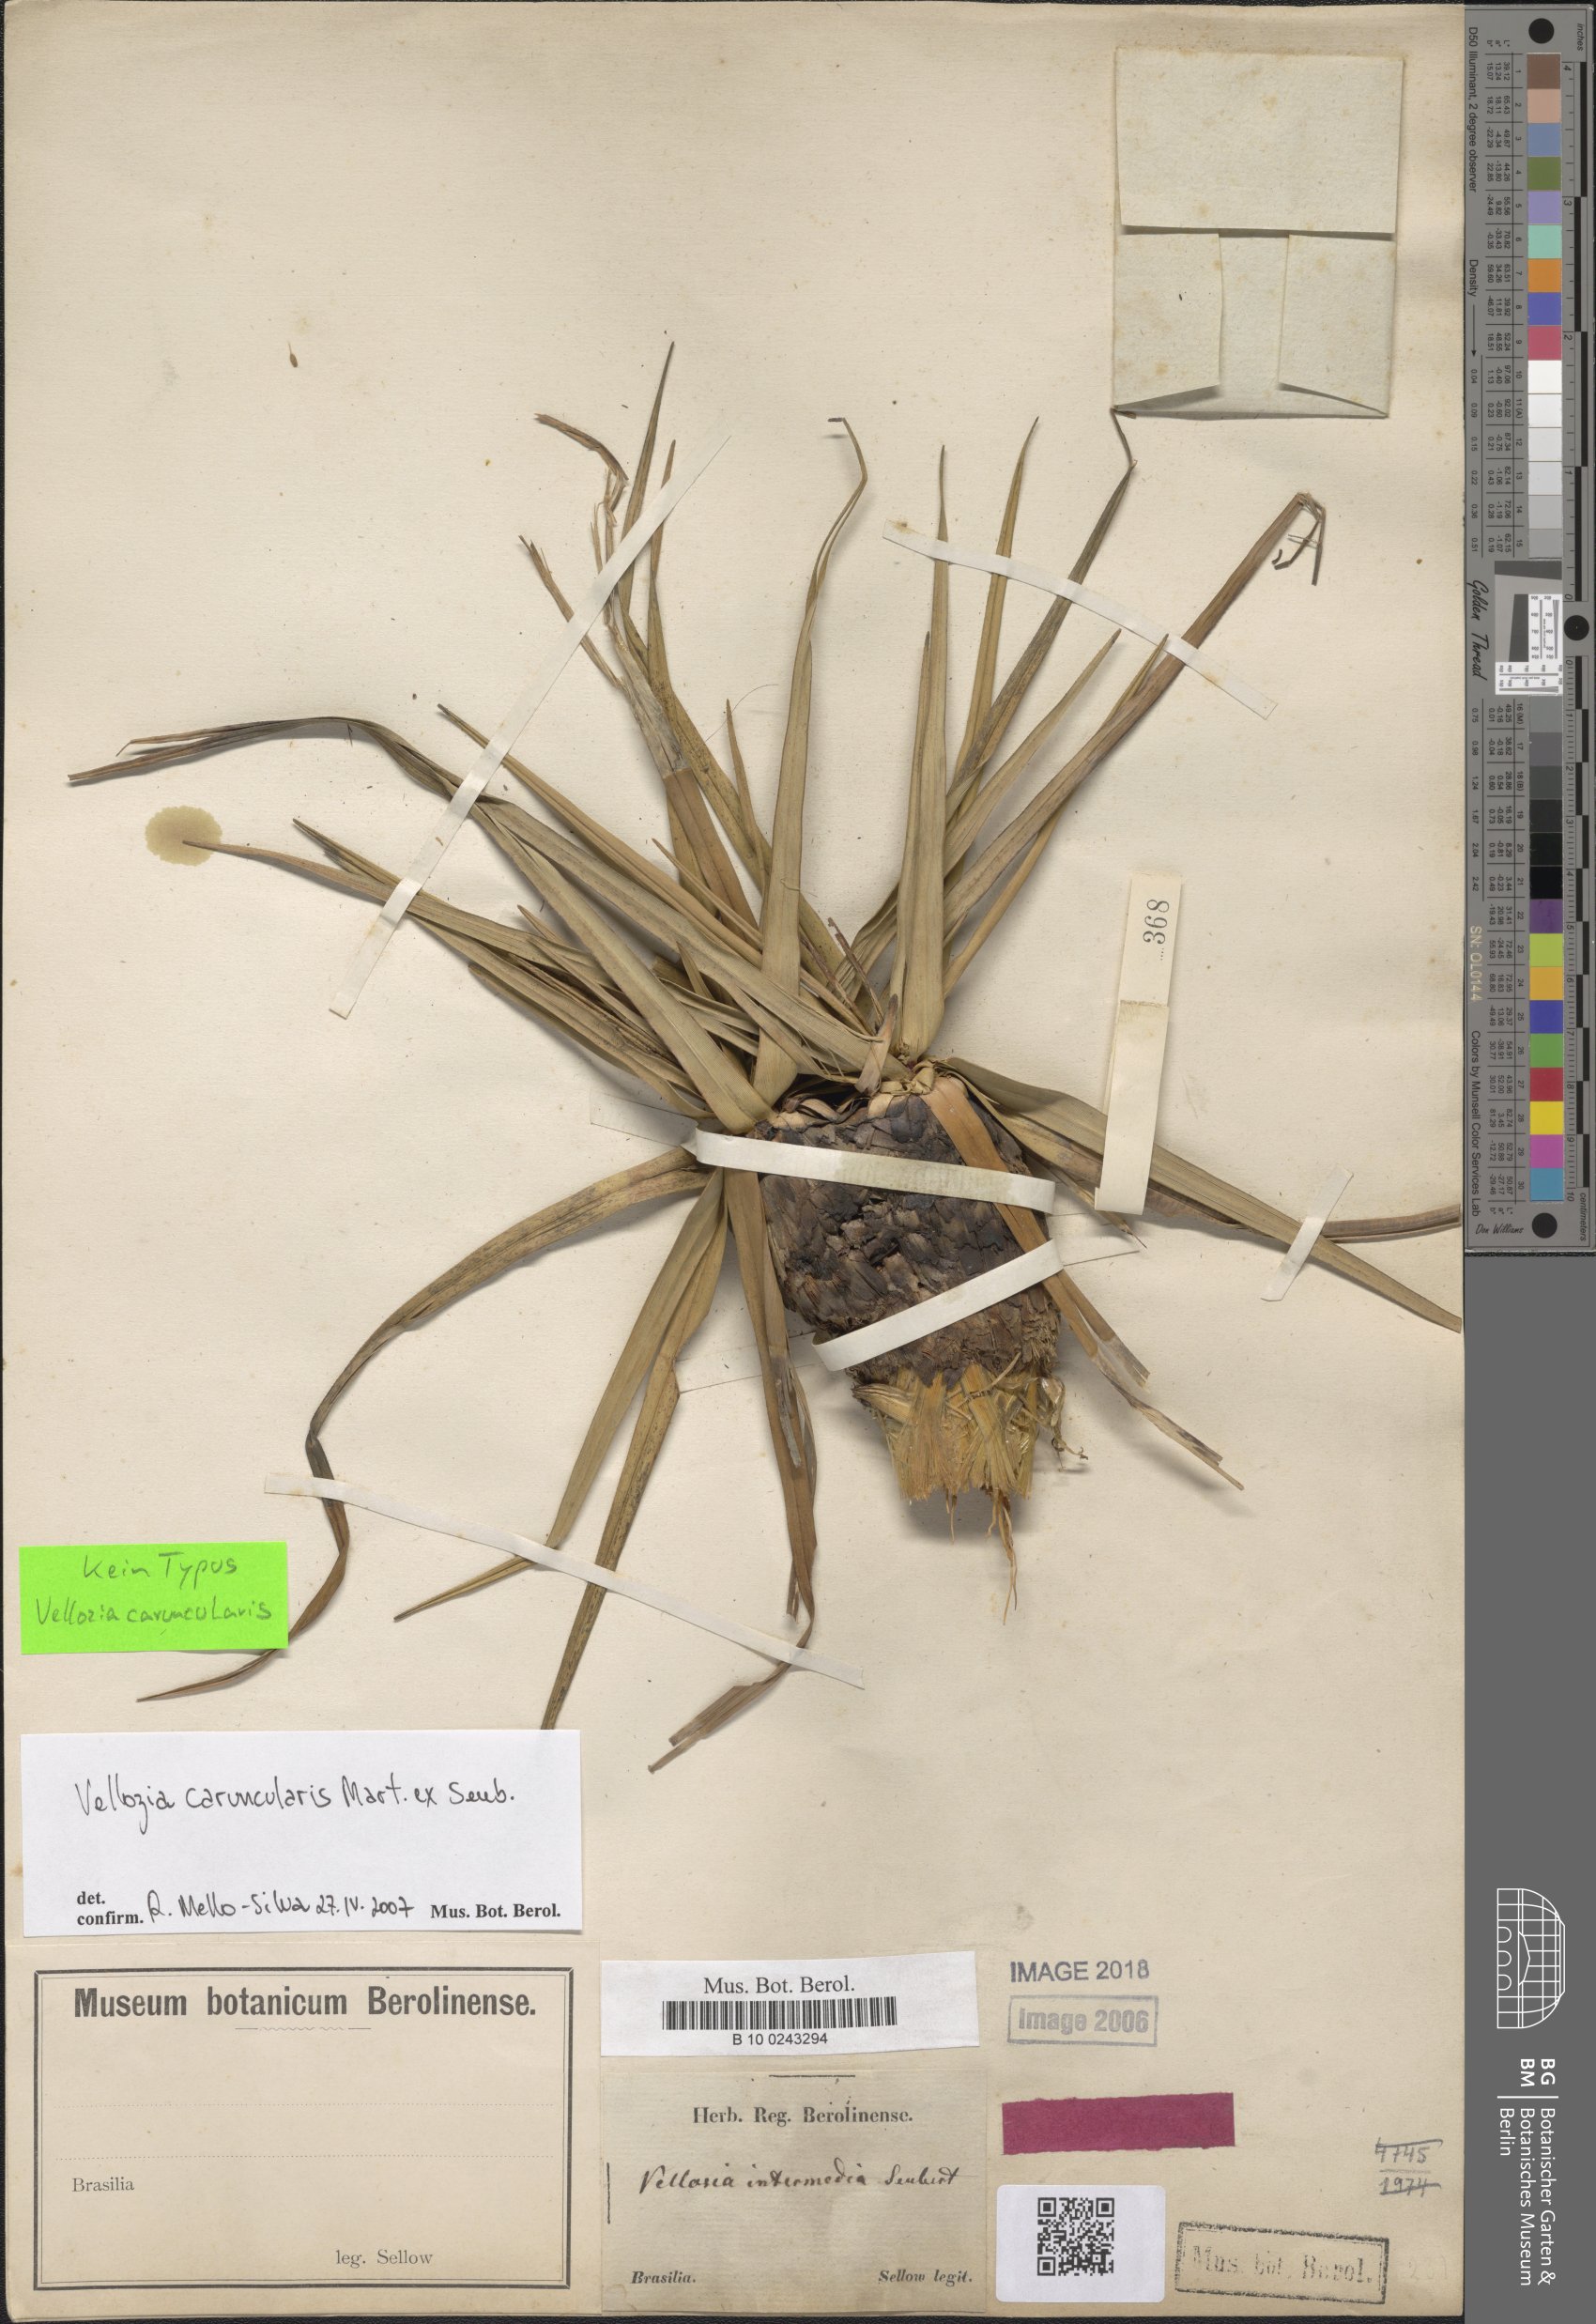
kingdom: Plantae
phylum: Tracheophyta
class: Liliopsida
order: Pandanales
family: Velloziaceae
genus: Vellozia
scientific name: Vellozia intermedia
